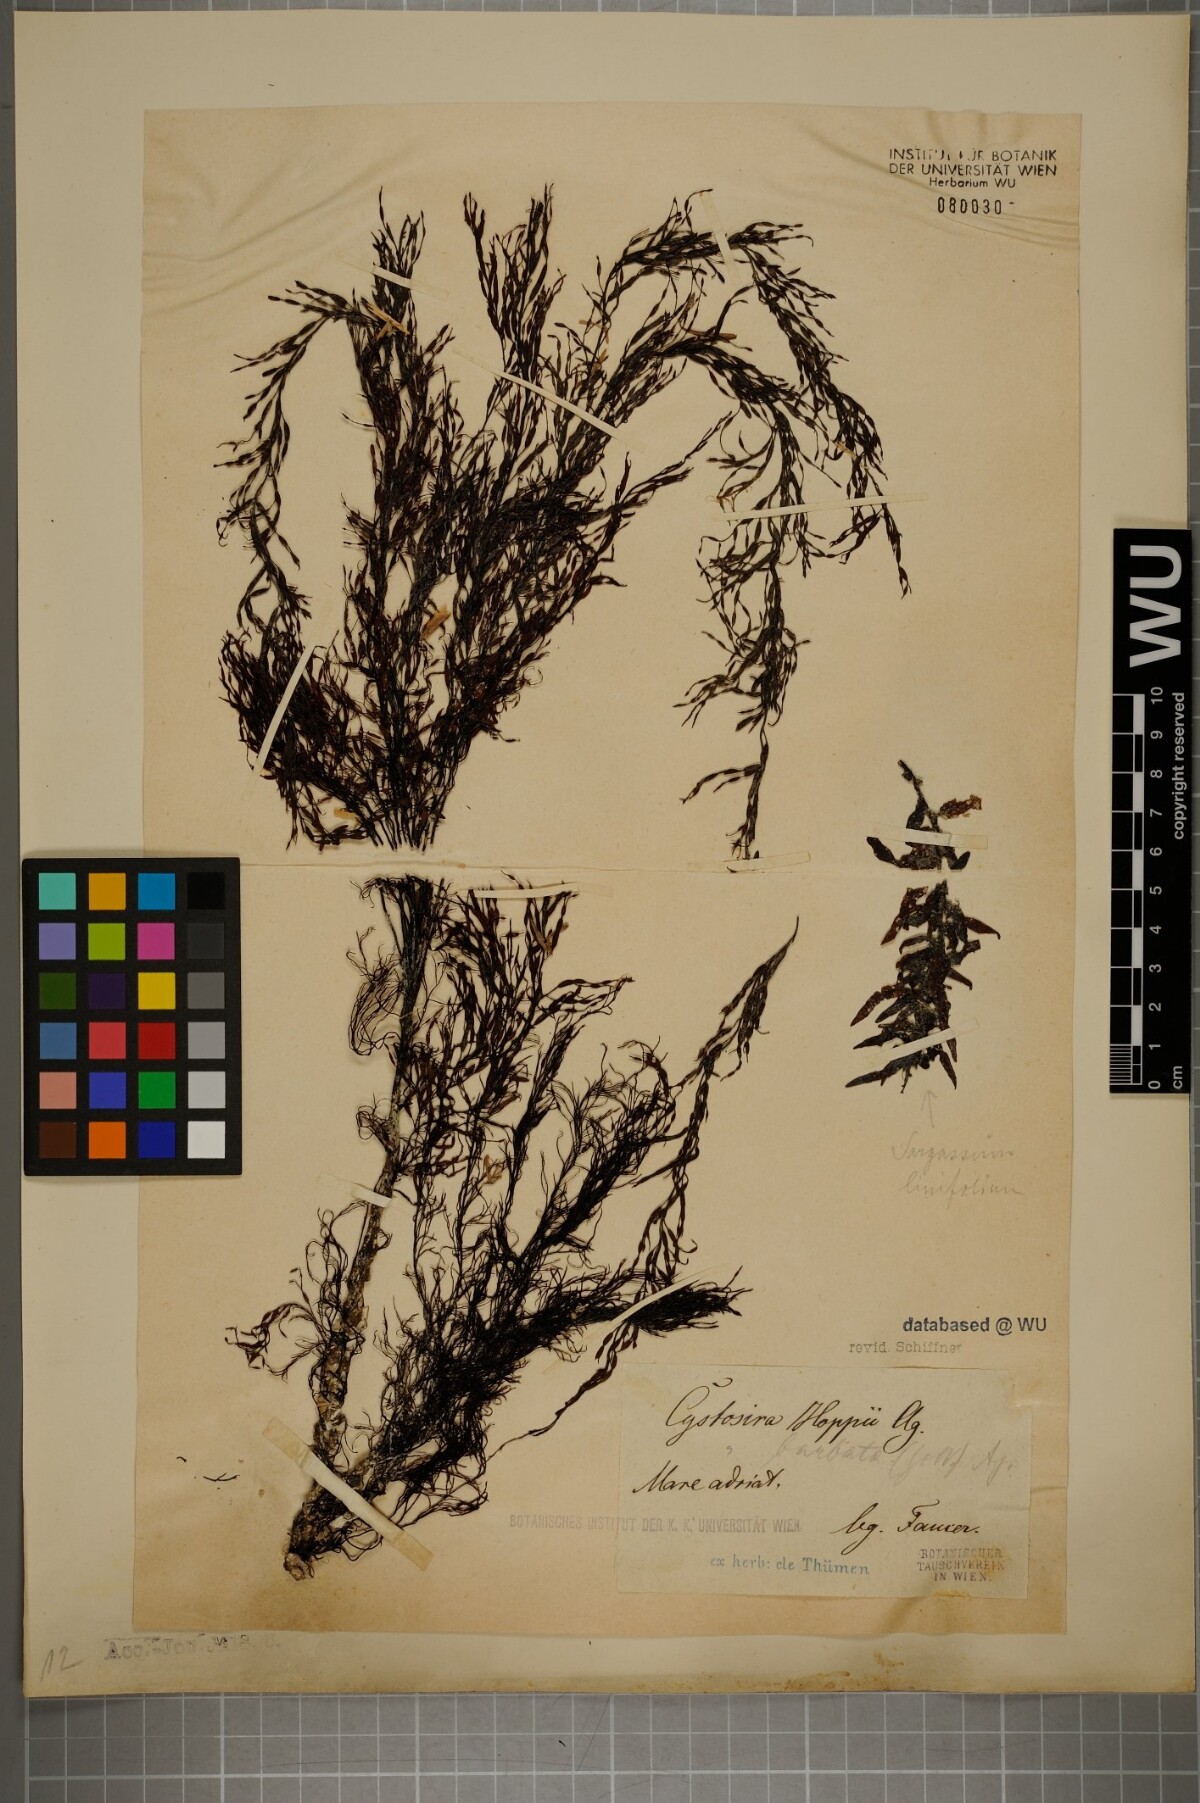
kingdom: Chromista
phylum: Ochrophyta
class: Phaeophyceae
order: Fucales
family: Sargassaceae
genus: Cystoseira
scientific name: Cystoseira Gongolaria barbata
